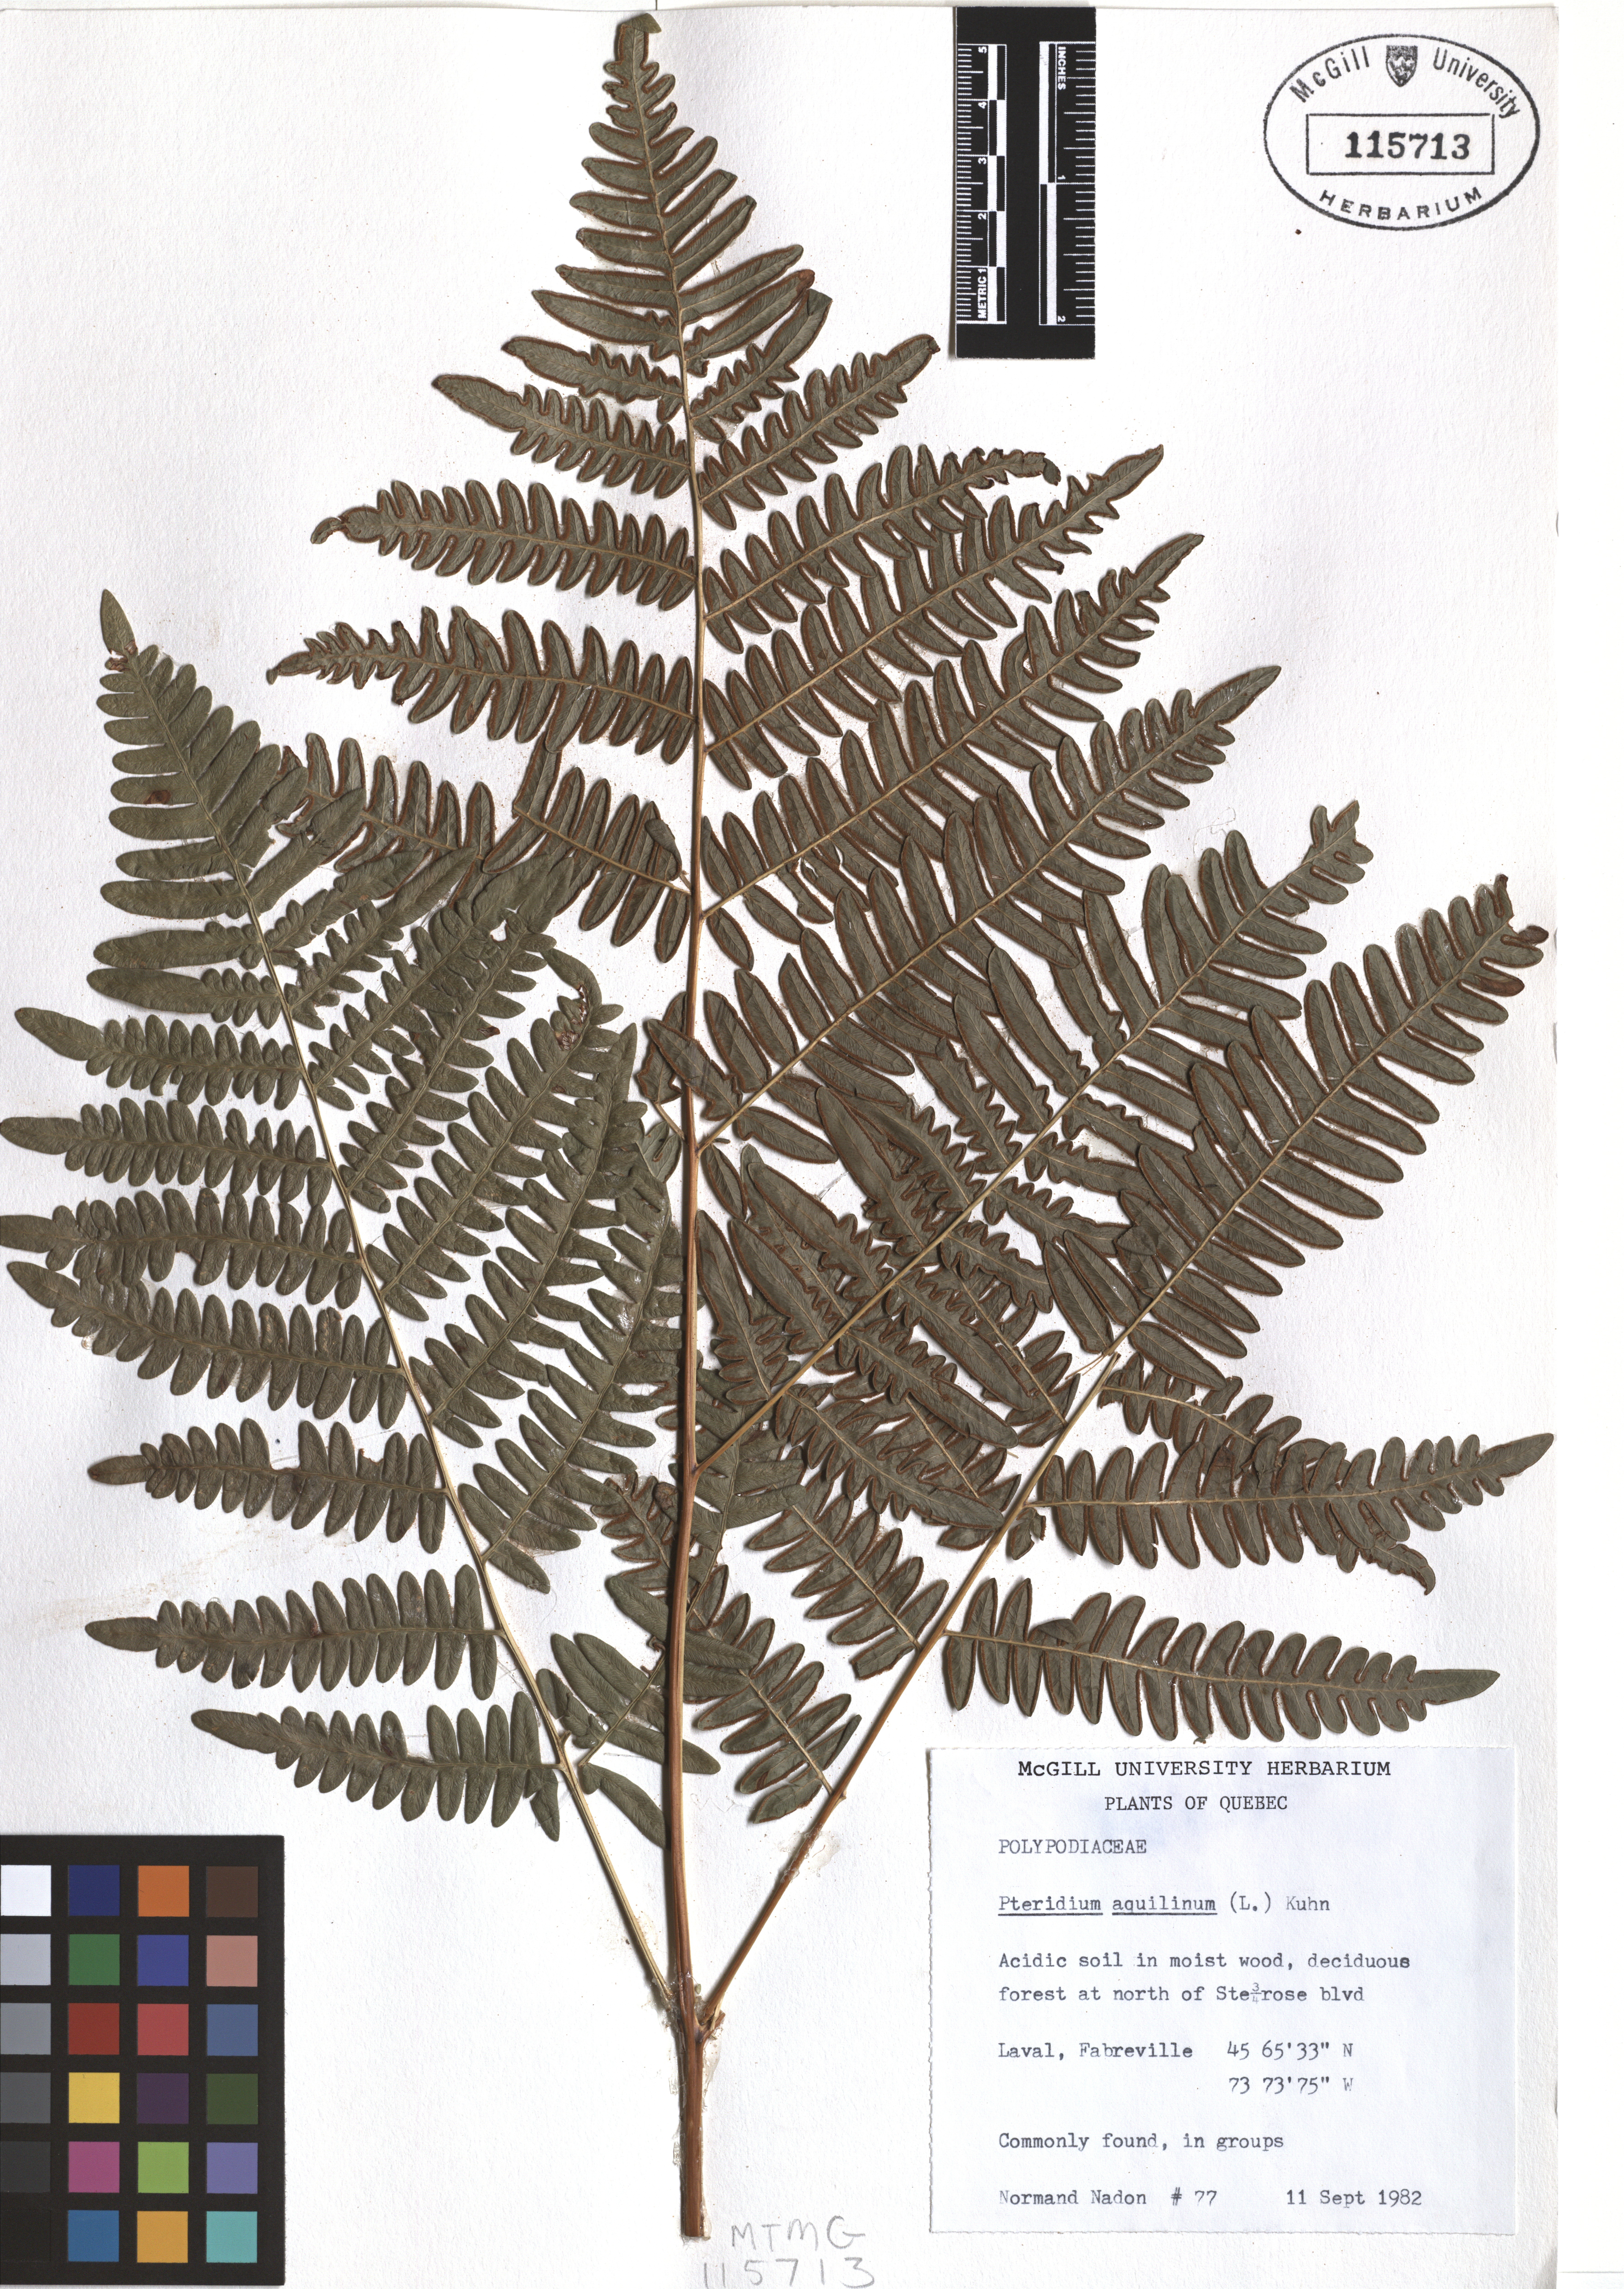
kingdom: Plantae
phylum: Tracheophyta
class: Polypodiopsida
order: Polypodiales
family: Dennstaedtiaceae
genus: Pteridium
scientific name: Pteridium aquilinum
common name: Bracken
